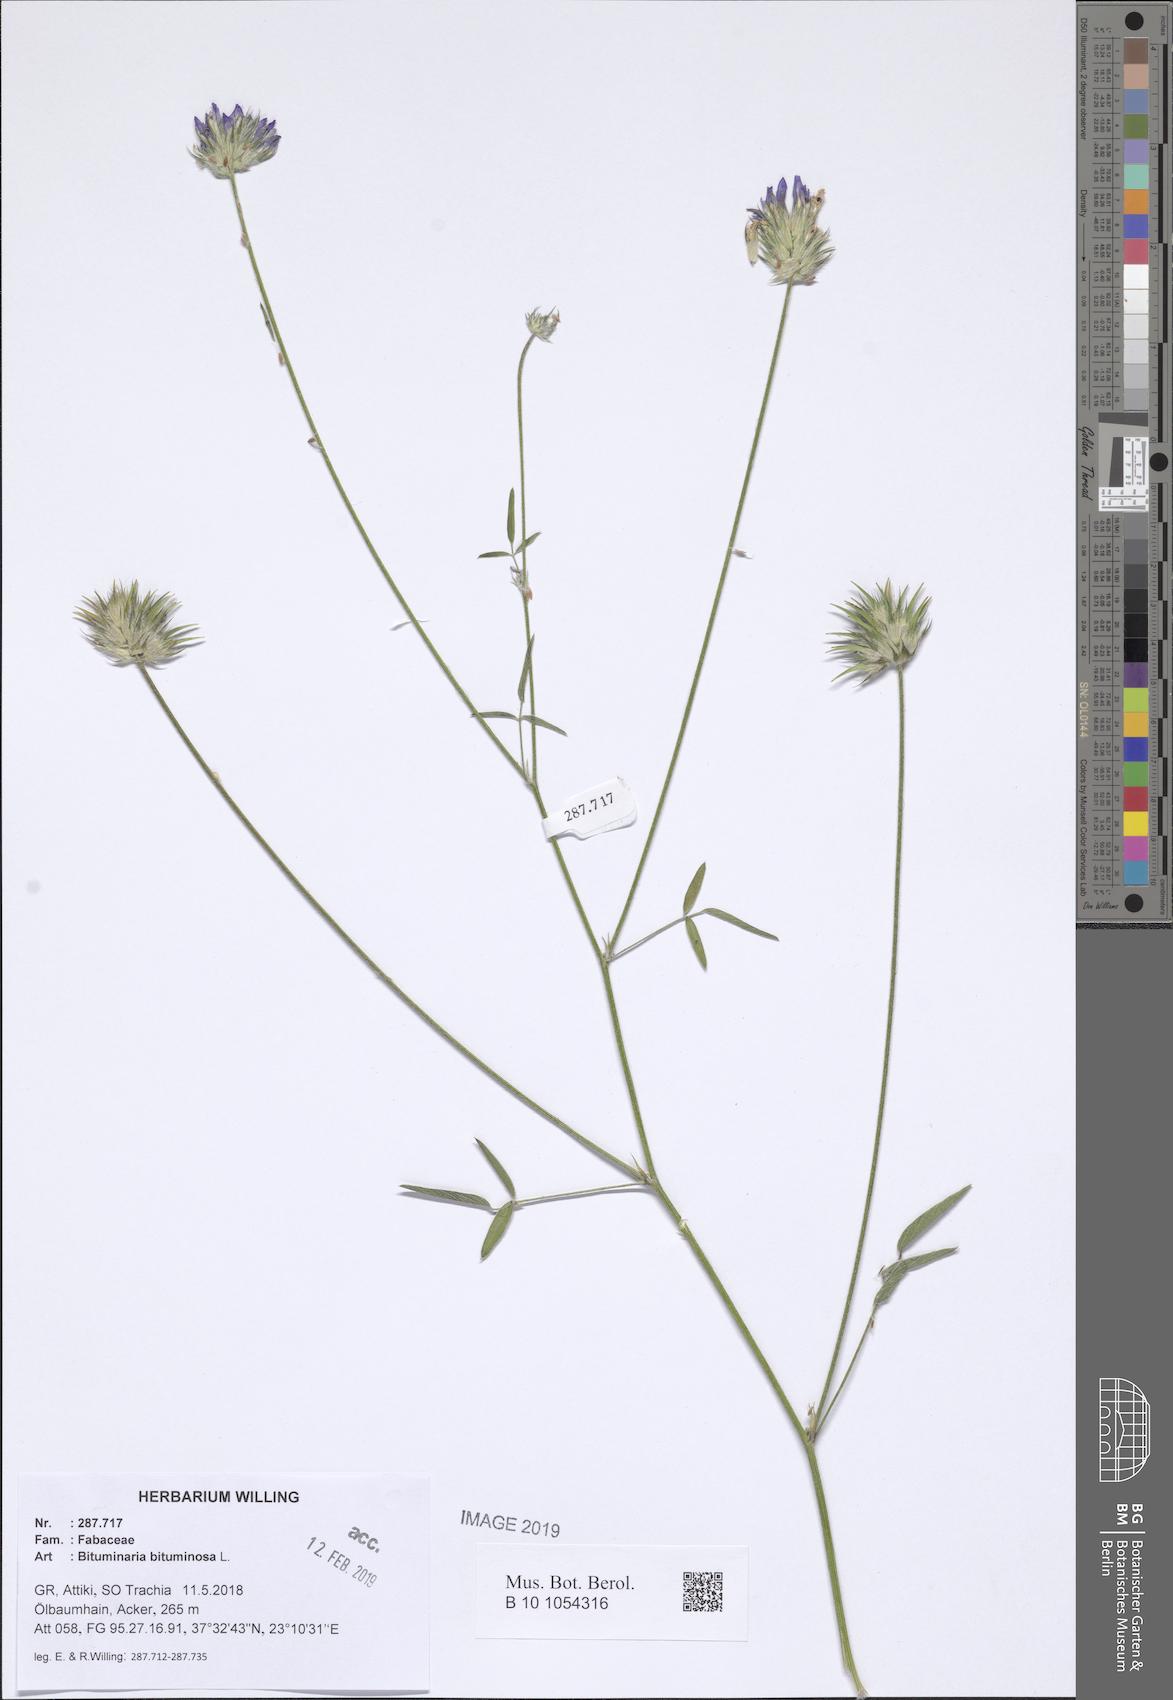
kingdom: Plantae
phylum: Tracheophyta
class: Magnoliopsida
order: Fabales
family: Fabaceae
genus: Bituminaria
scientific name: Bituminaria bituminosa
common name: Arabian pea
